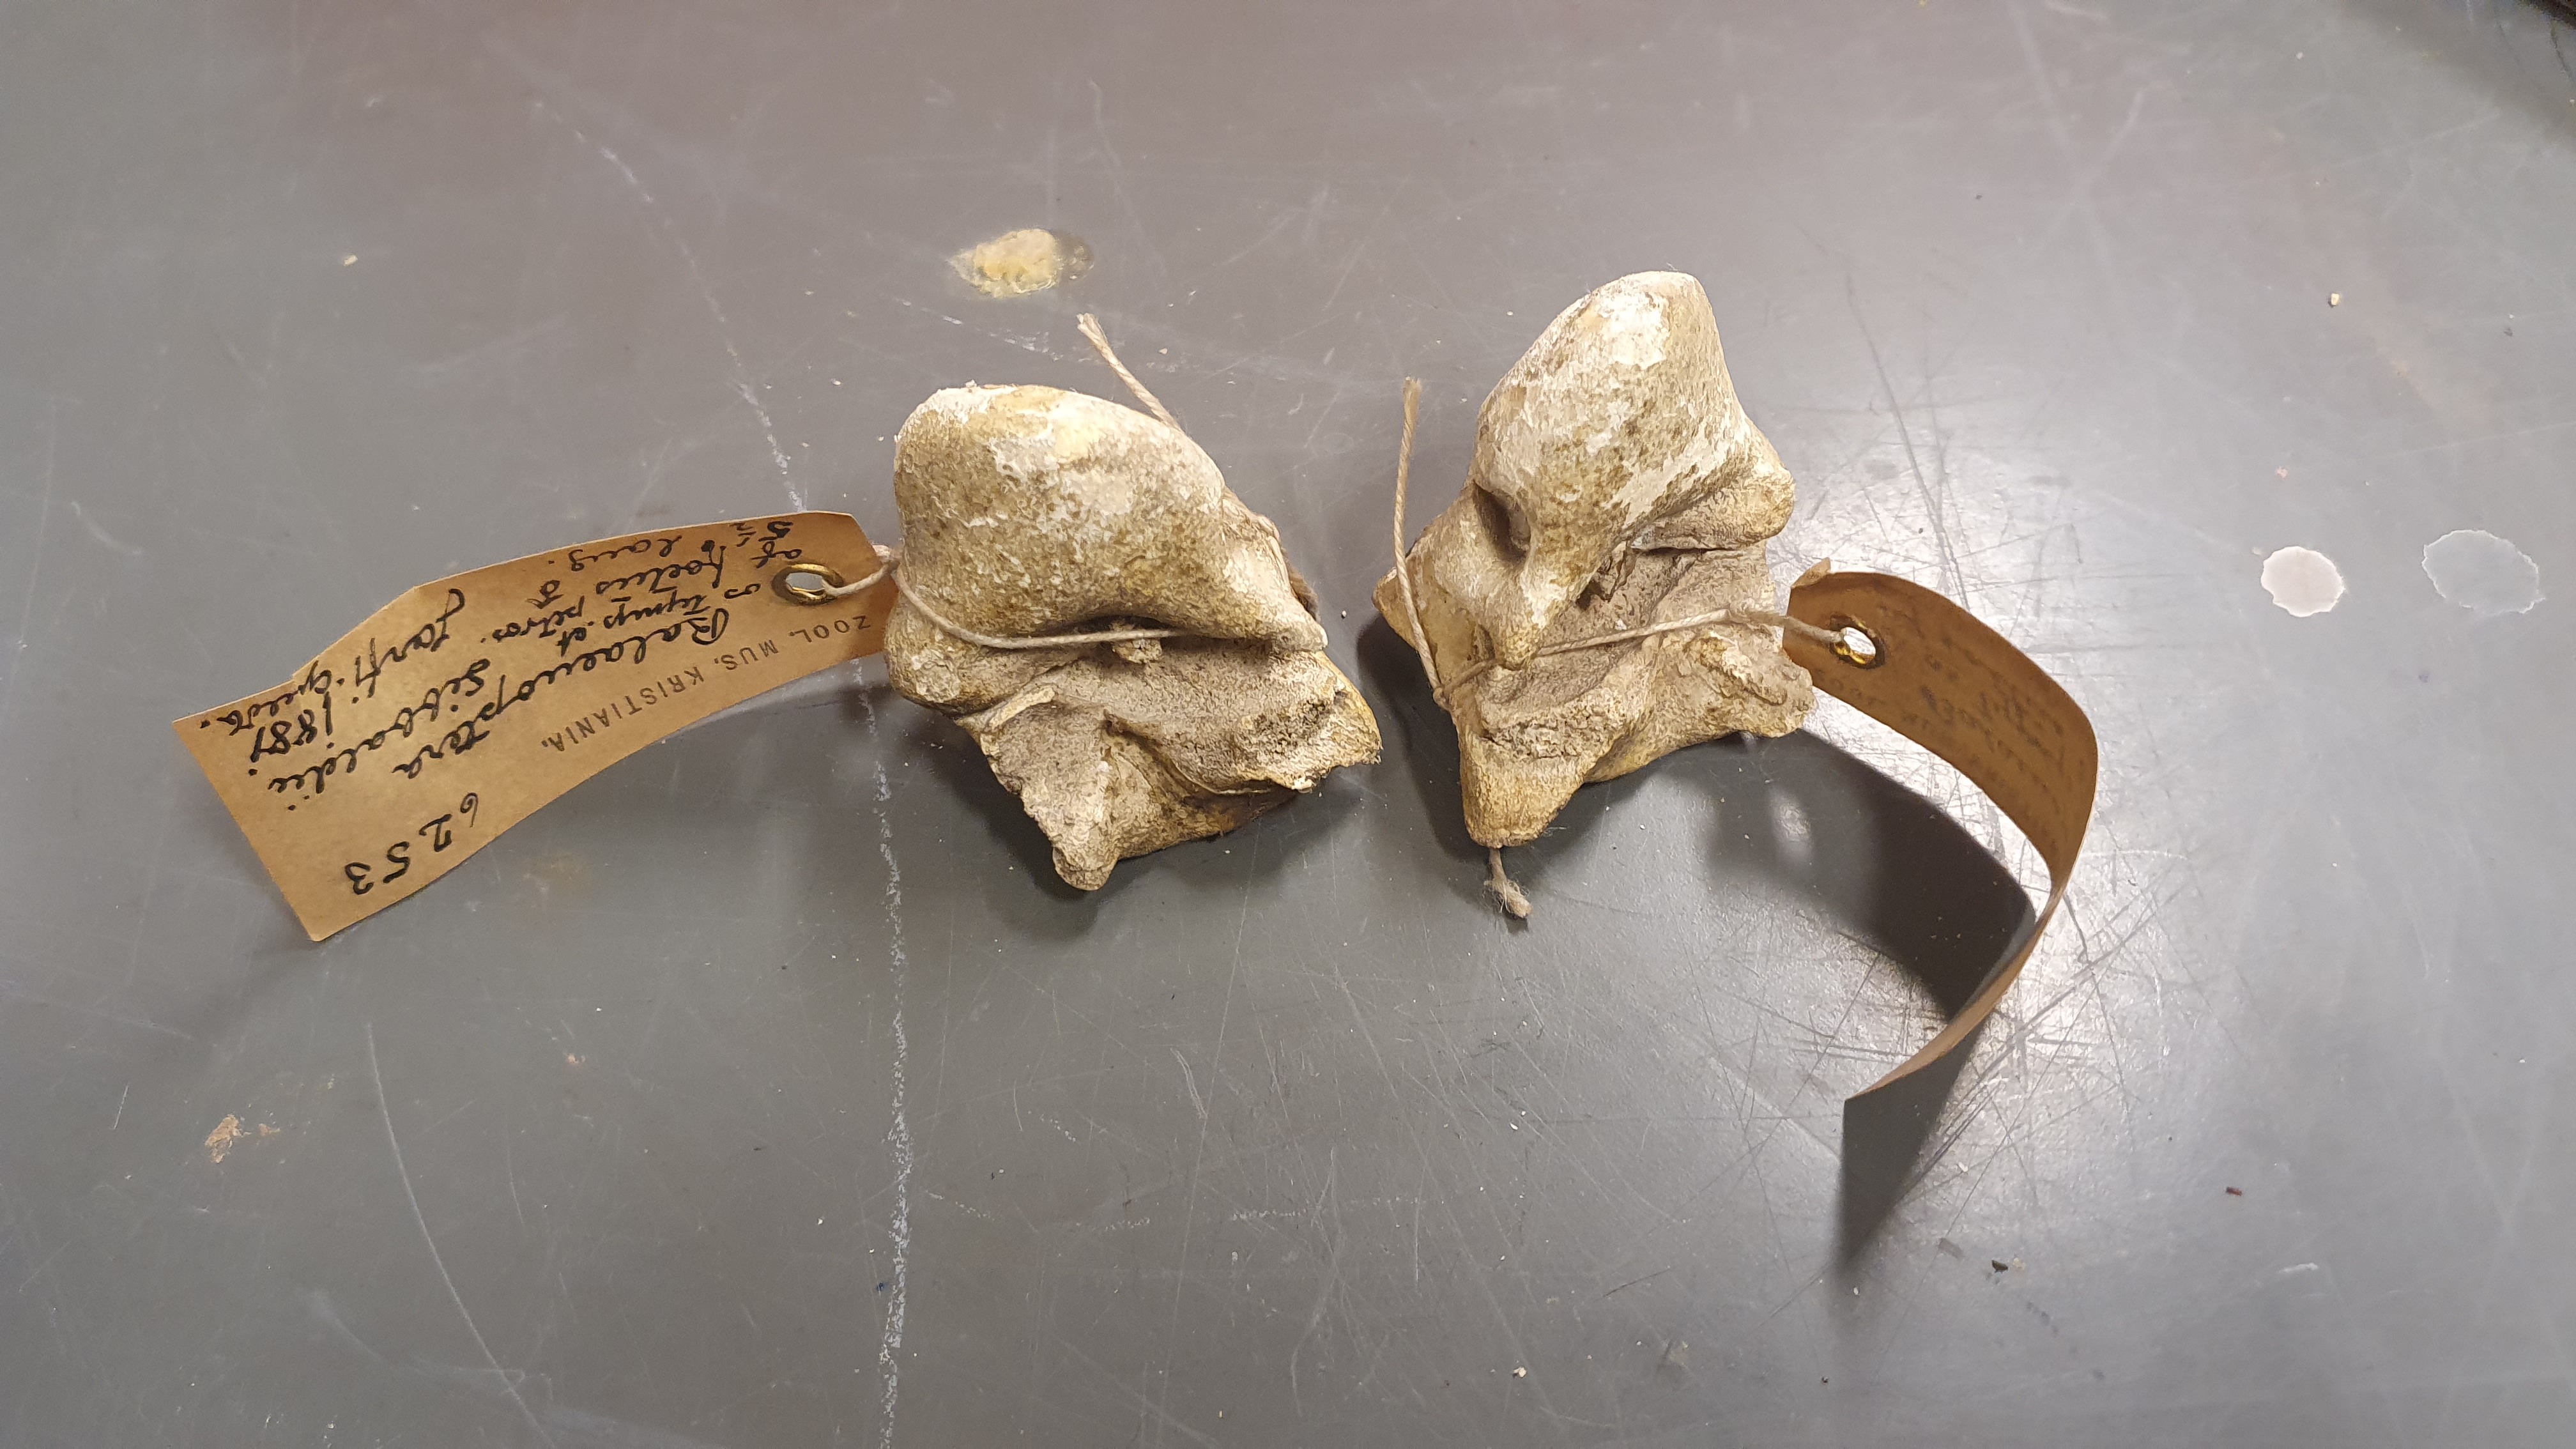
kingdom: Animalia
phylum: Chordata
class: Mammalia
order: Cetacea
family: Balaenopteridae
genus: Balaenoptera
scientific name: Balaenoptera musculus
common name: Blue whale
